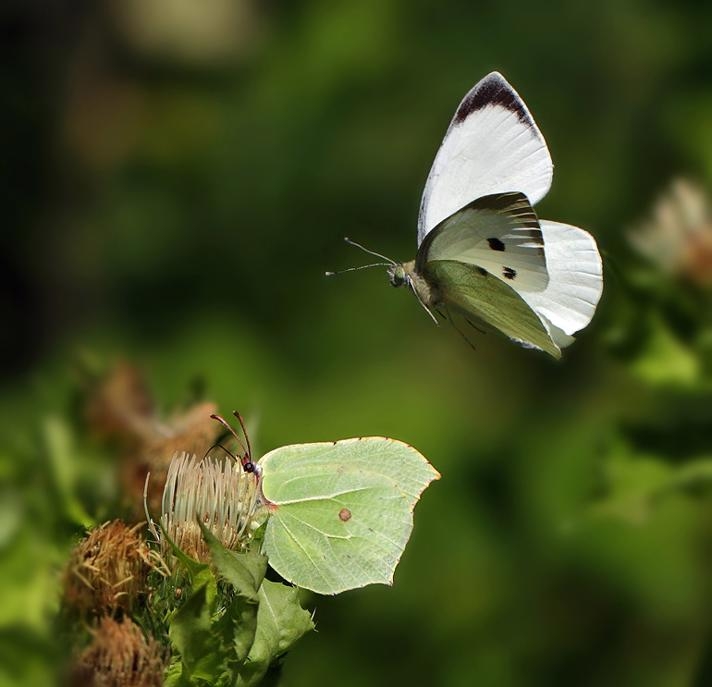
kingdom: Animalia
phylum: Arthropoda
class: Insecta
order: Lepidoptera
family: Pieridae
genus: Pieris
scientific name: Pieris brassicae
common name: Stor kålsommerfugl
